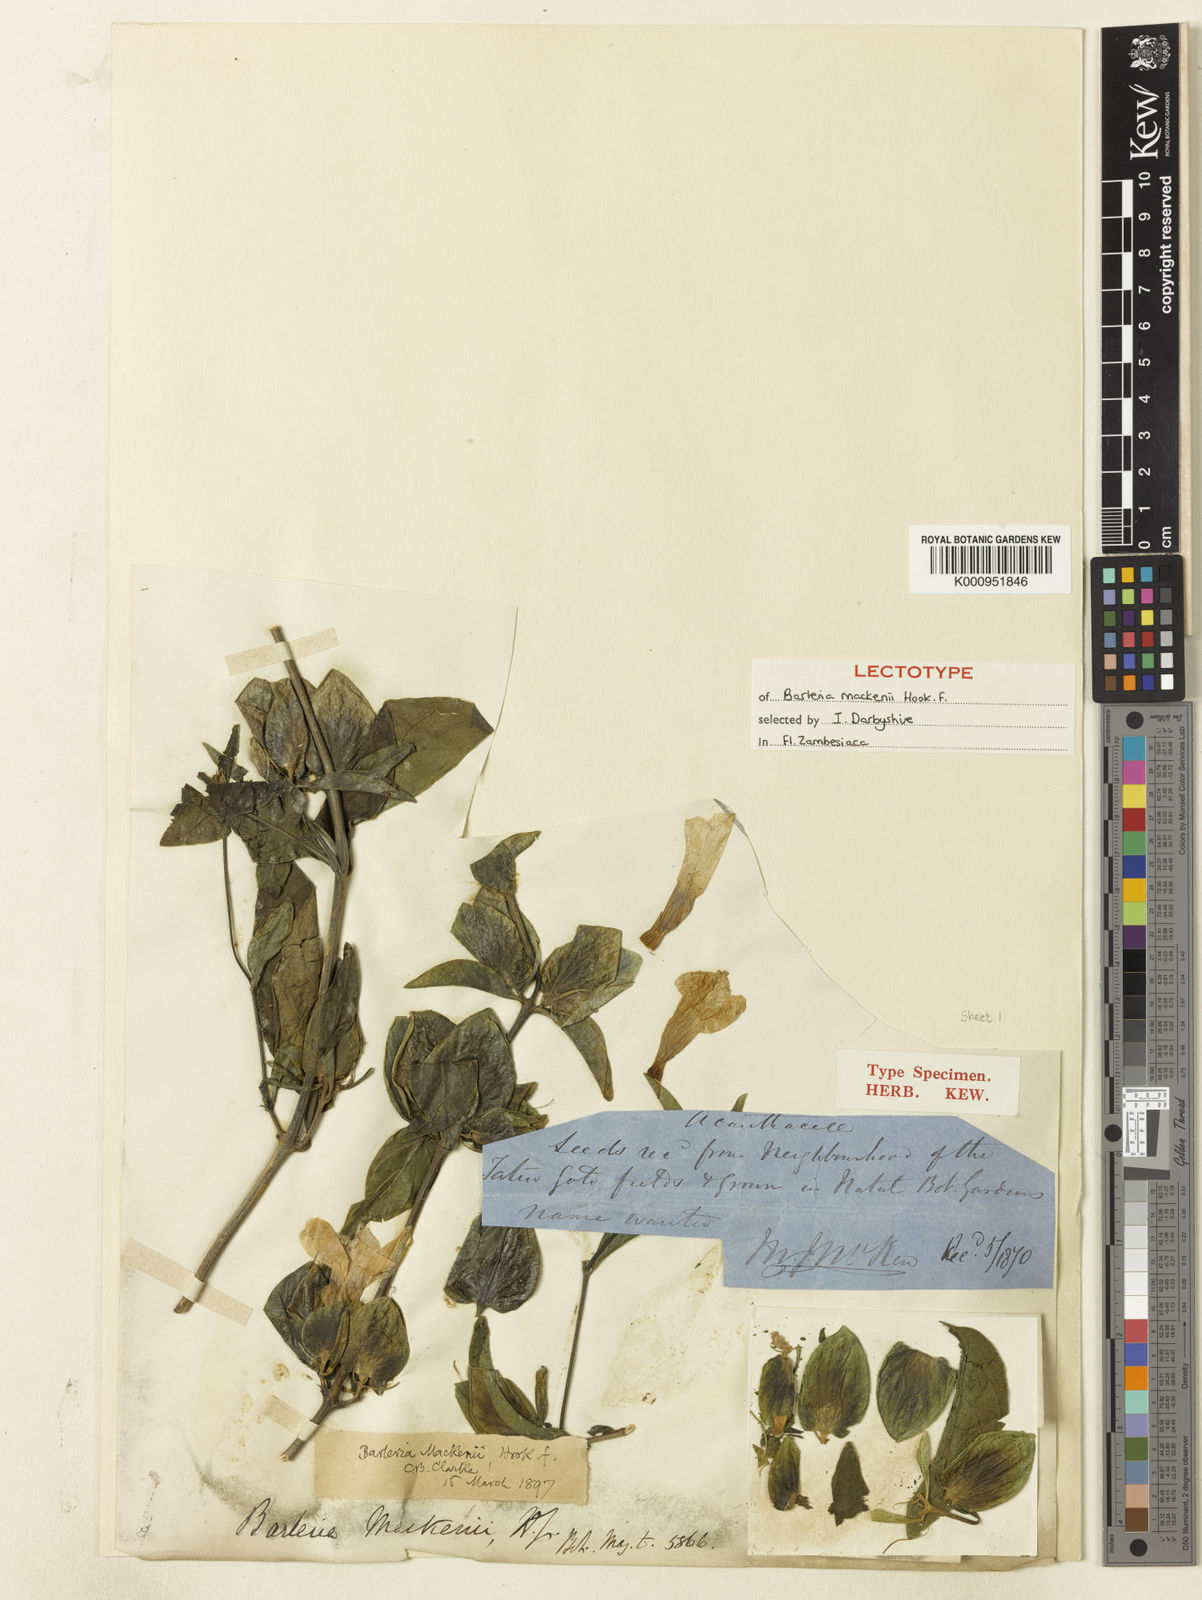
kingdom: Plantae
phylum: Tracheophyta
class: Magnoliopsida
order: Lamiales
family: Acanthaceae
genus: Barleria
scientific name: Barleria mackenii
